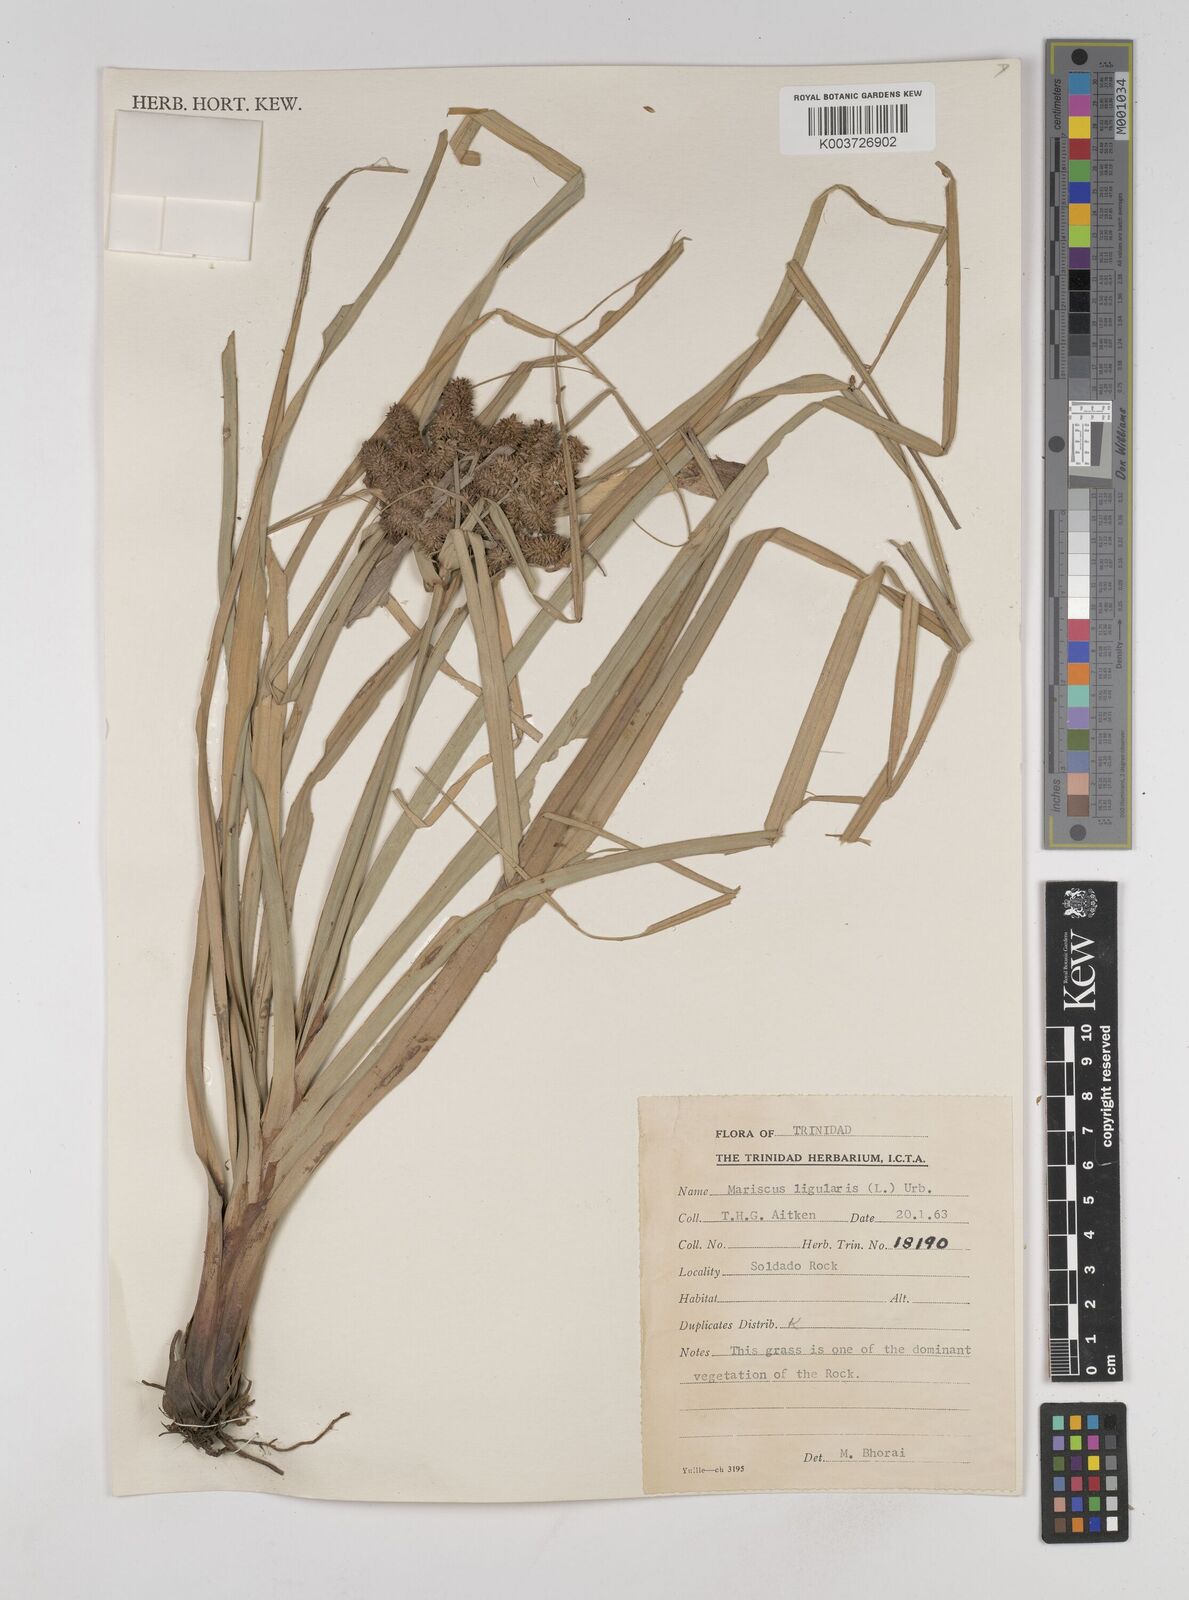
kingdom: Plantae
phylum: Tracheophyta
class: Liliopsida
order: Poales
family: Cyperaceae
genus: Cyperus
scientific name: Cyperus ligularis
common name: Swamp flat sedge
